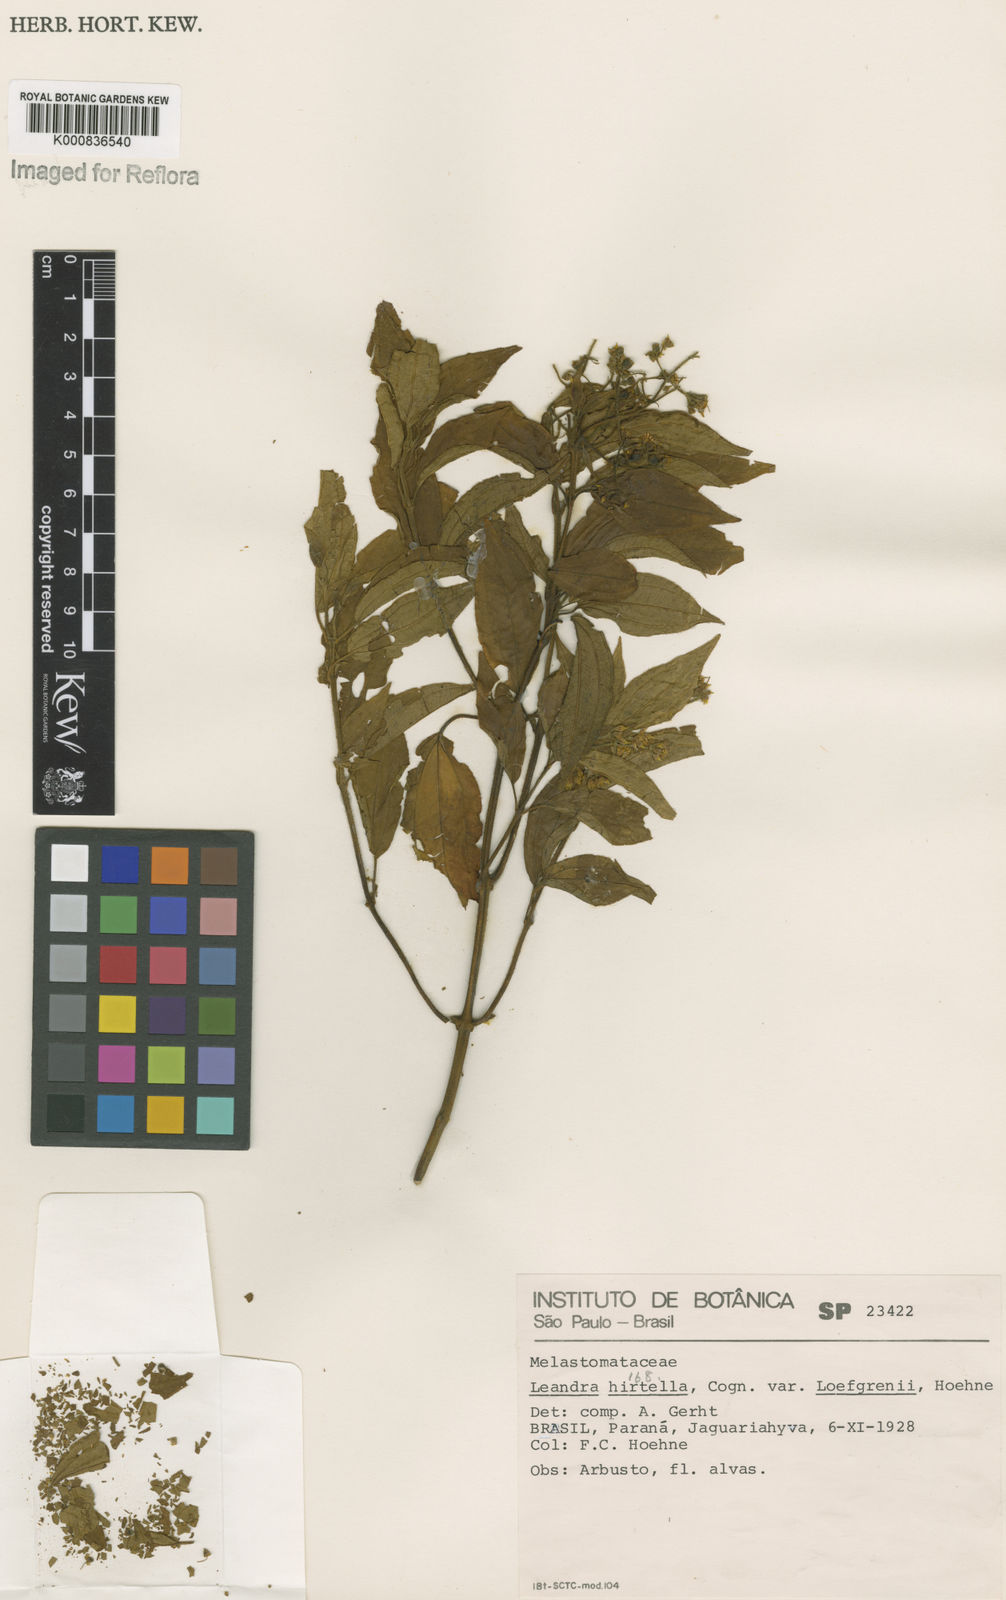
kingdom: Plantae
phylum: Tracheophyta
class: Magnoliopsida
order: Myrtales
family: Melastomataceae
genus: Miconia
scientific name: Miconia leahirtella
